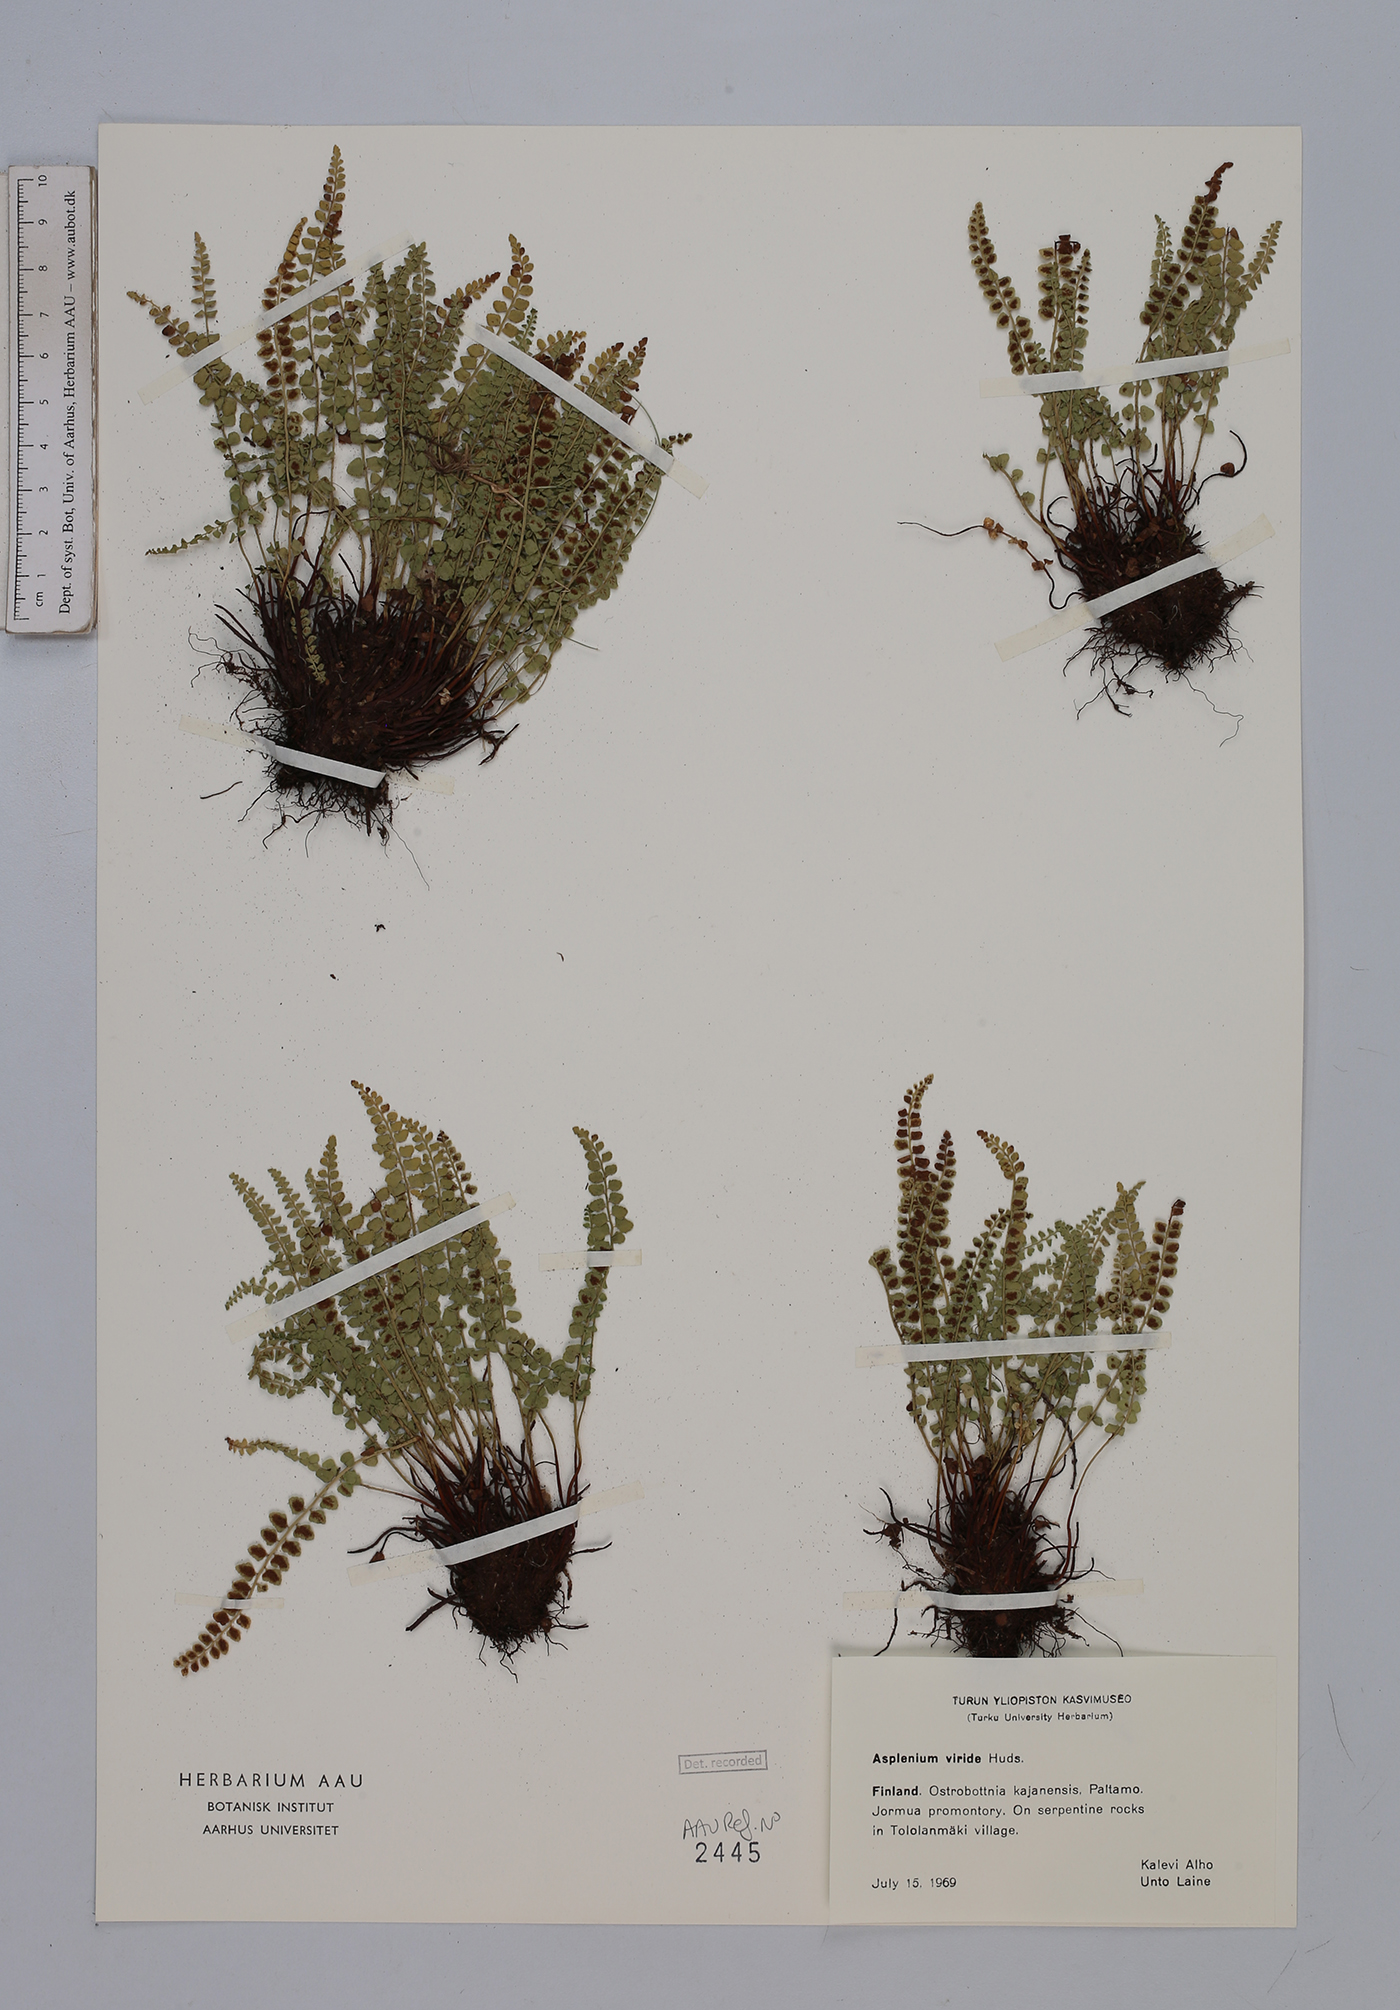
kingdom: Plantae
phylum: Tracheophyta
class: Polypodiopsida
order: Polypodiales
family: Aspleniaceae
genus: Asplenium
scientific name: Asplenium viride
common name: Green spleenwort
